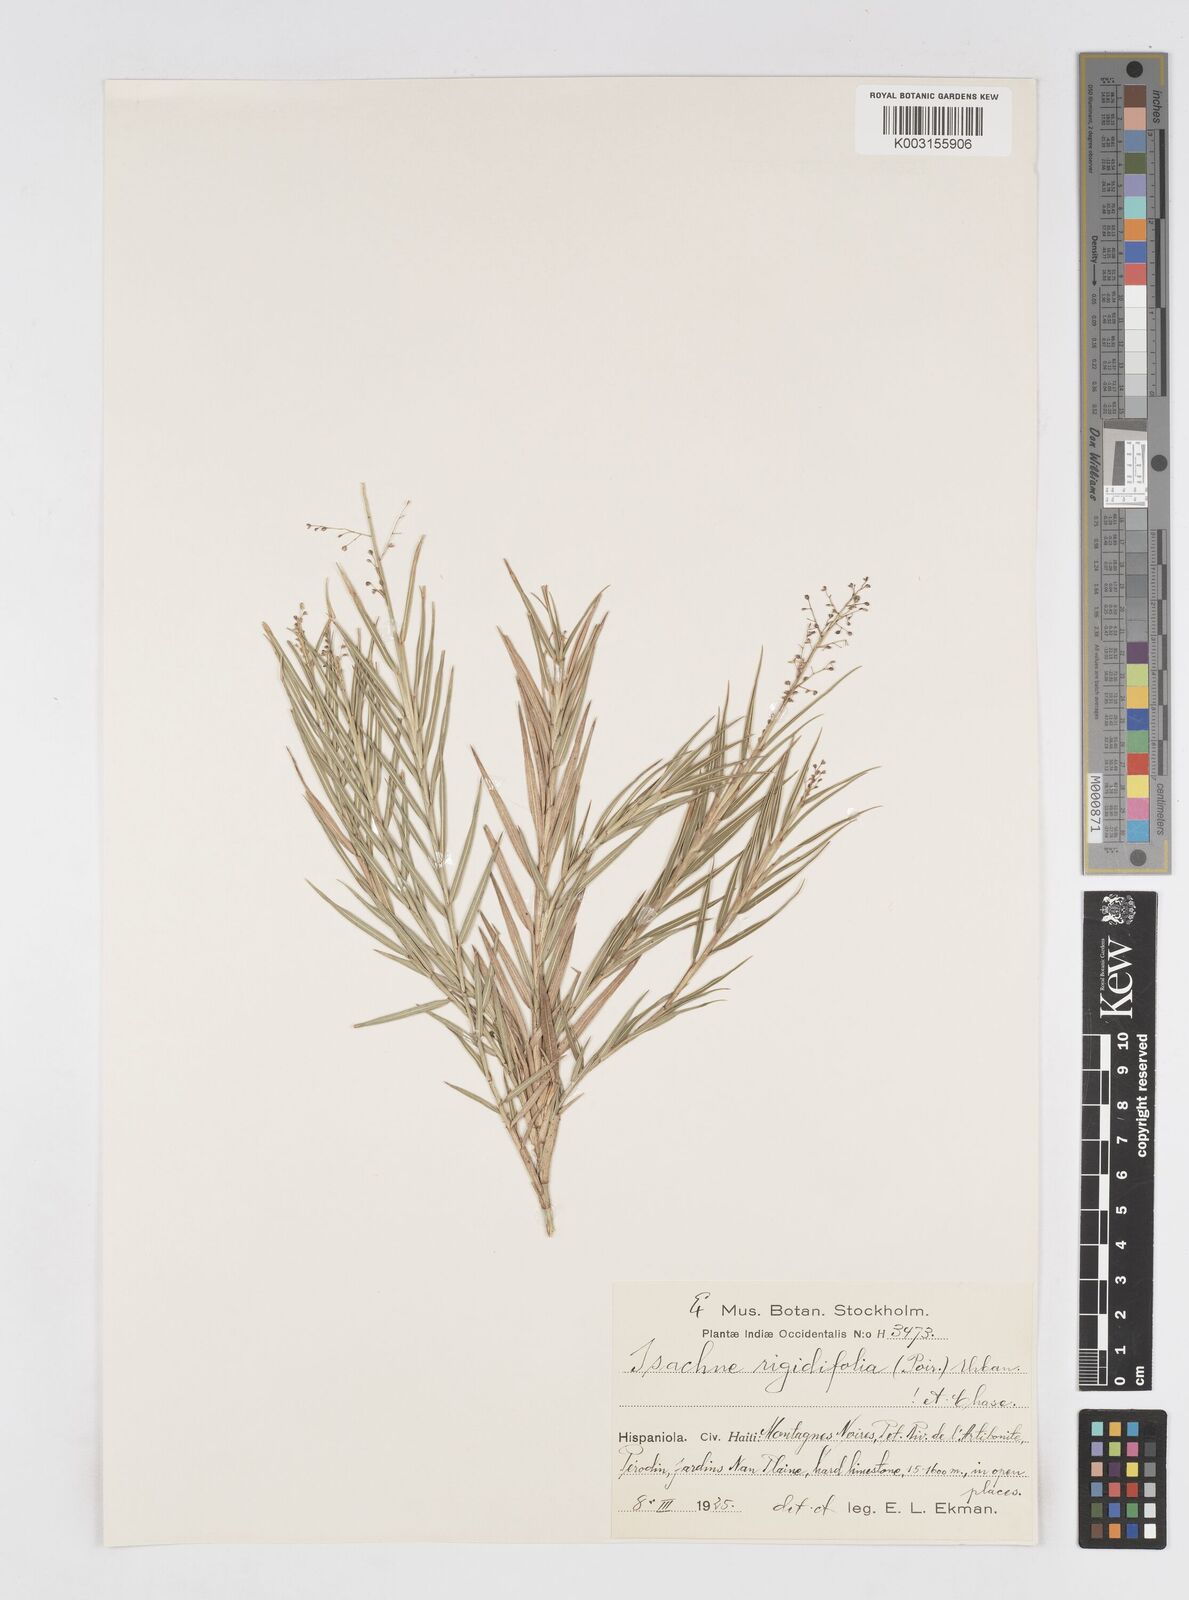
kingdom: Plantae
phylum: Tracheophyta
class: Liliopsida
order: Poales
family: Poaceae
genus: Isachne
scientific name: Isachne rigidifolia
